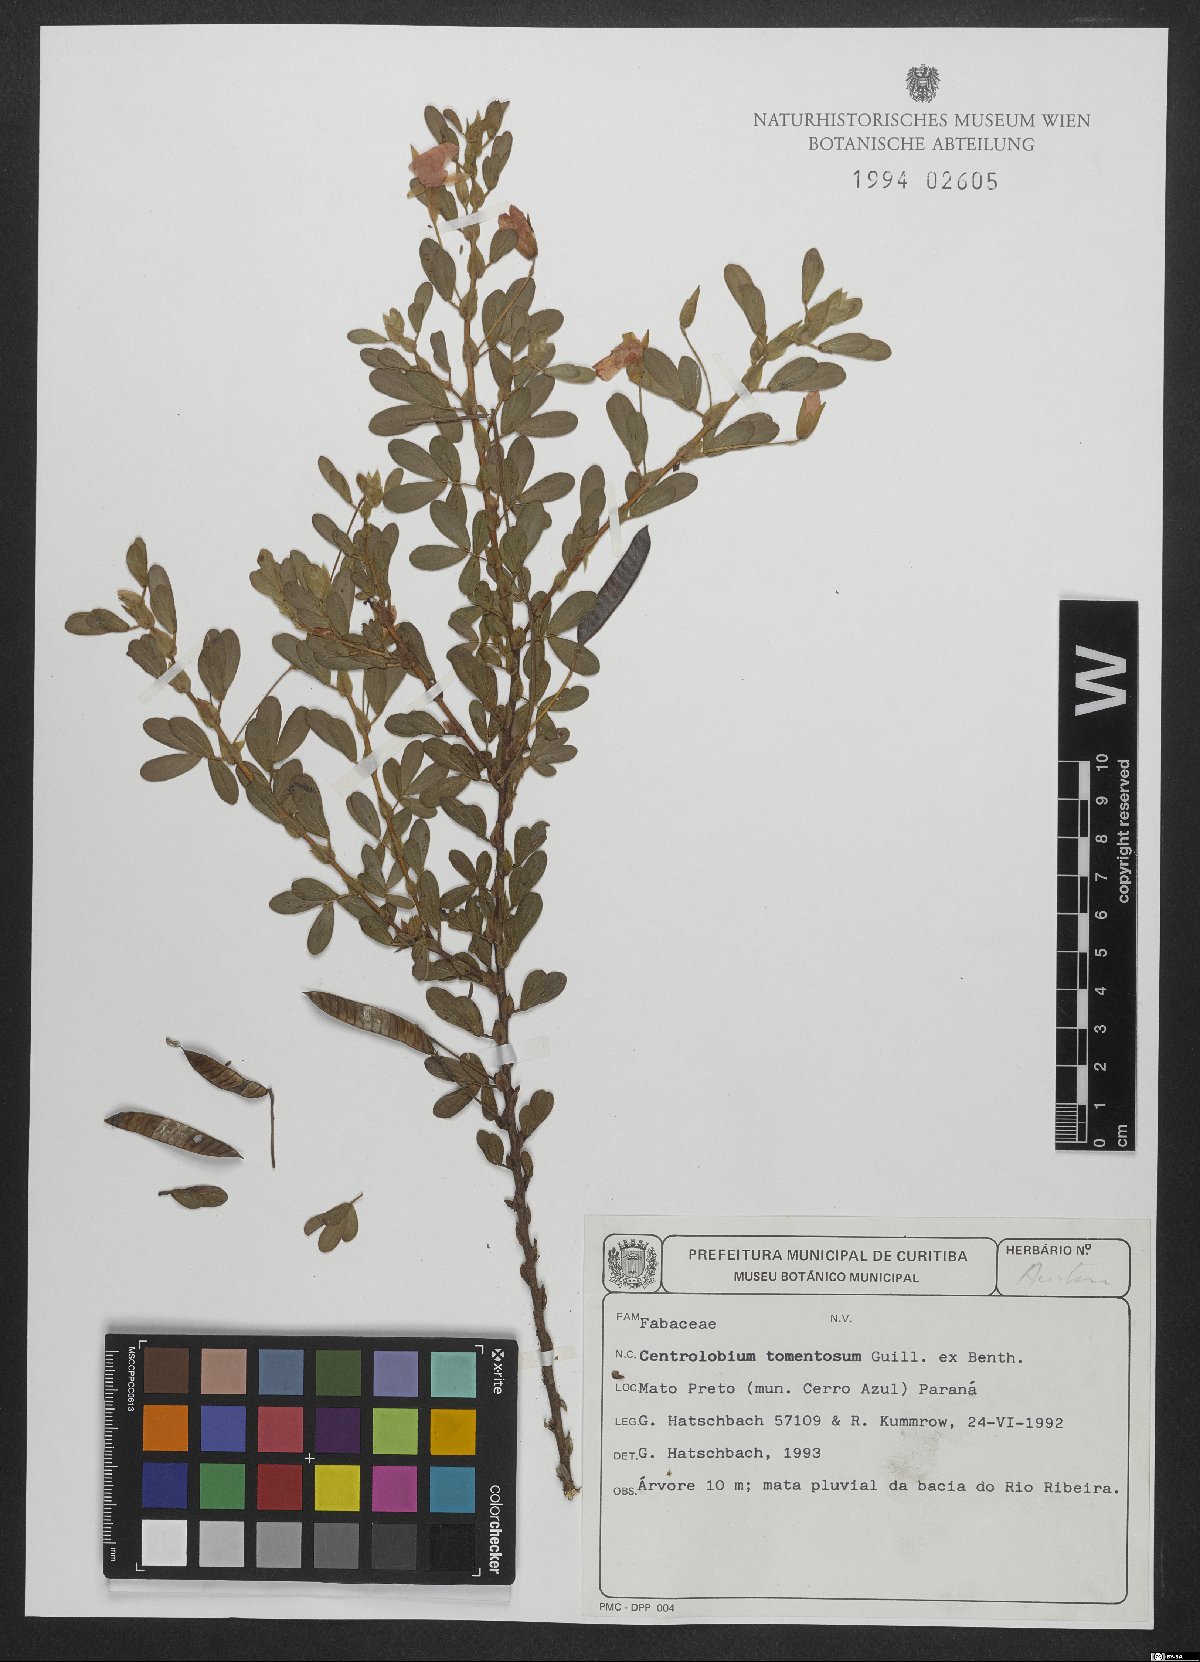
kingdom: Plantae
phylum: Tracheophyta
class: Magnoliopsida
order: Fabales
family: Fabaceae
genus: Centrolobium
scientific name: Centrolobium tomentosum
